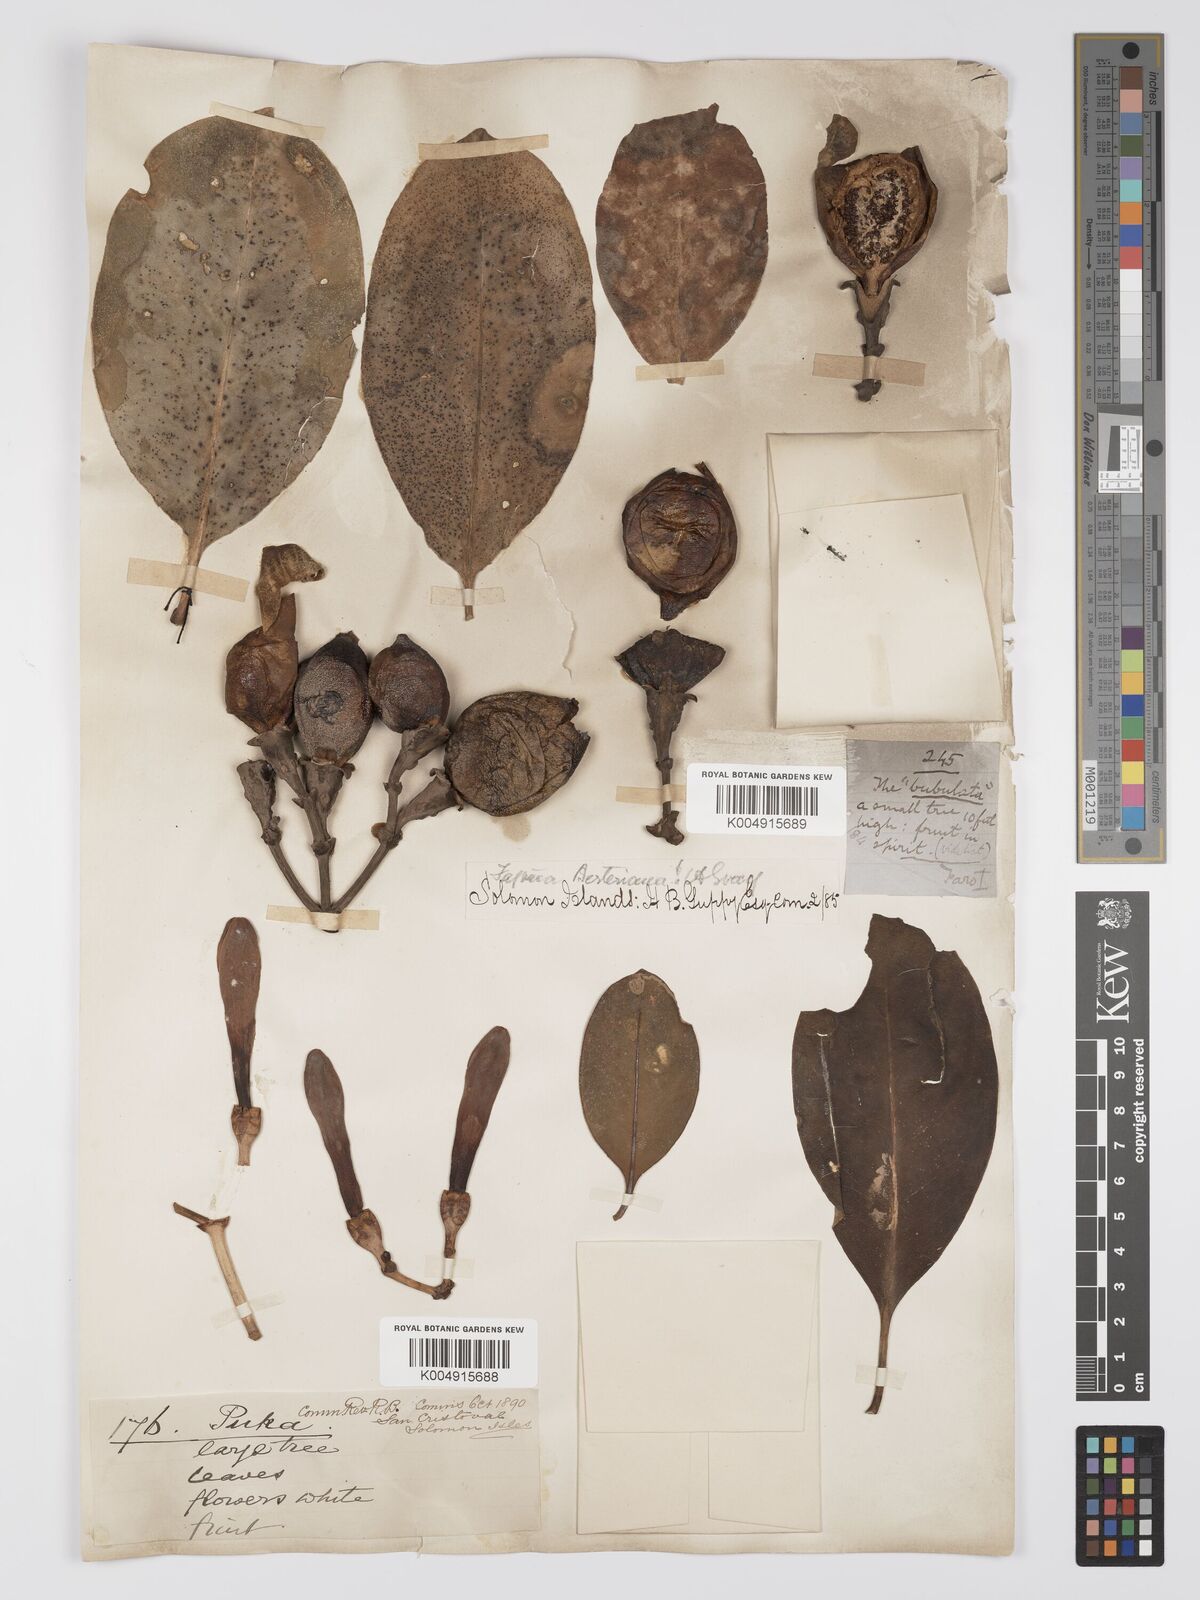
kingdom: Plantae
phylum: Tracheophyta
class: Magnoliopsida
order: Gentianales
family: Gentianaceae
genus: Fagraea
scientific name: Fagraea berteroana
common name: Cape jitta
